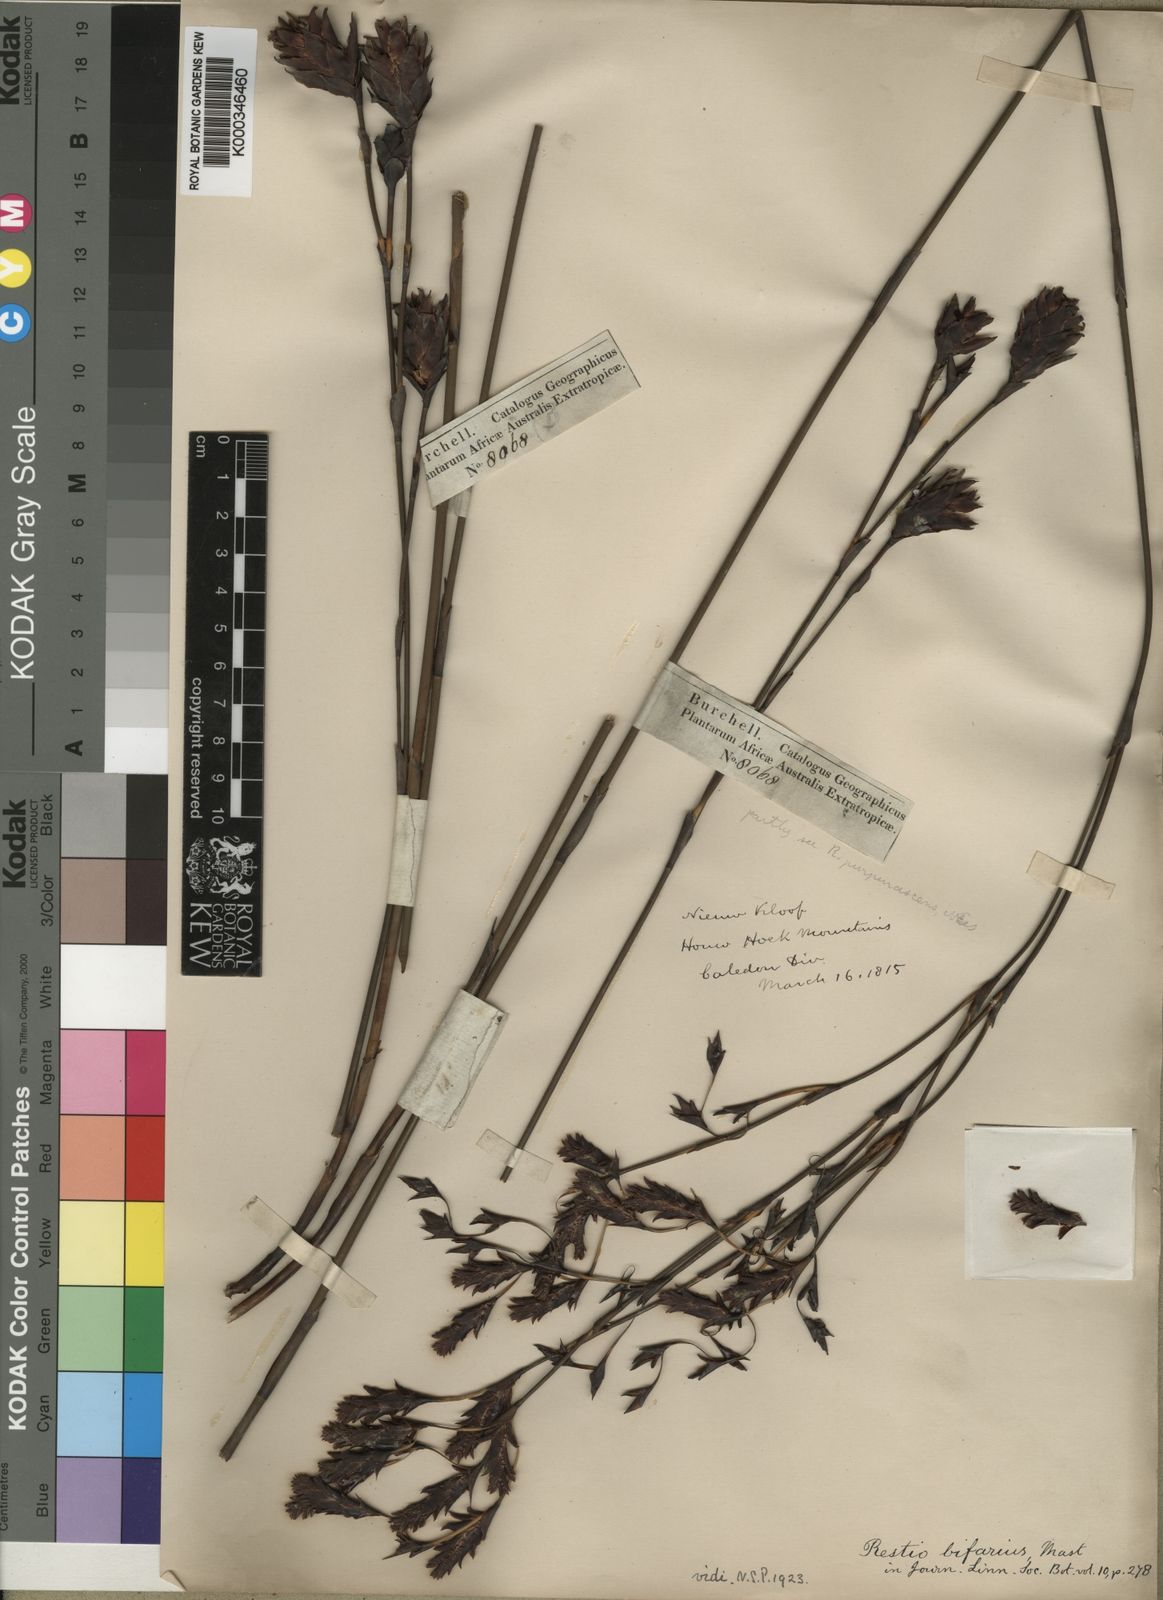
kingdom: Plantae
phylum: Tracheophyta
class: Liliopsida
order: Poales
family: Restionaceae
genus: Restio
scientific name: Restio bifarius
